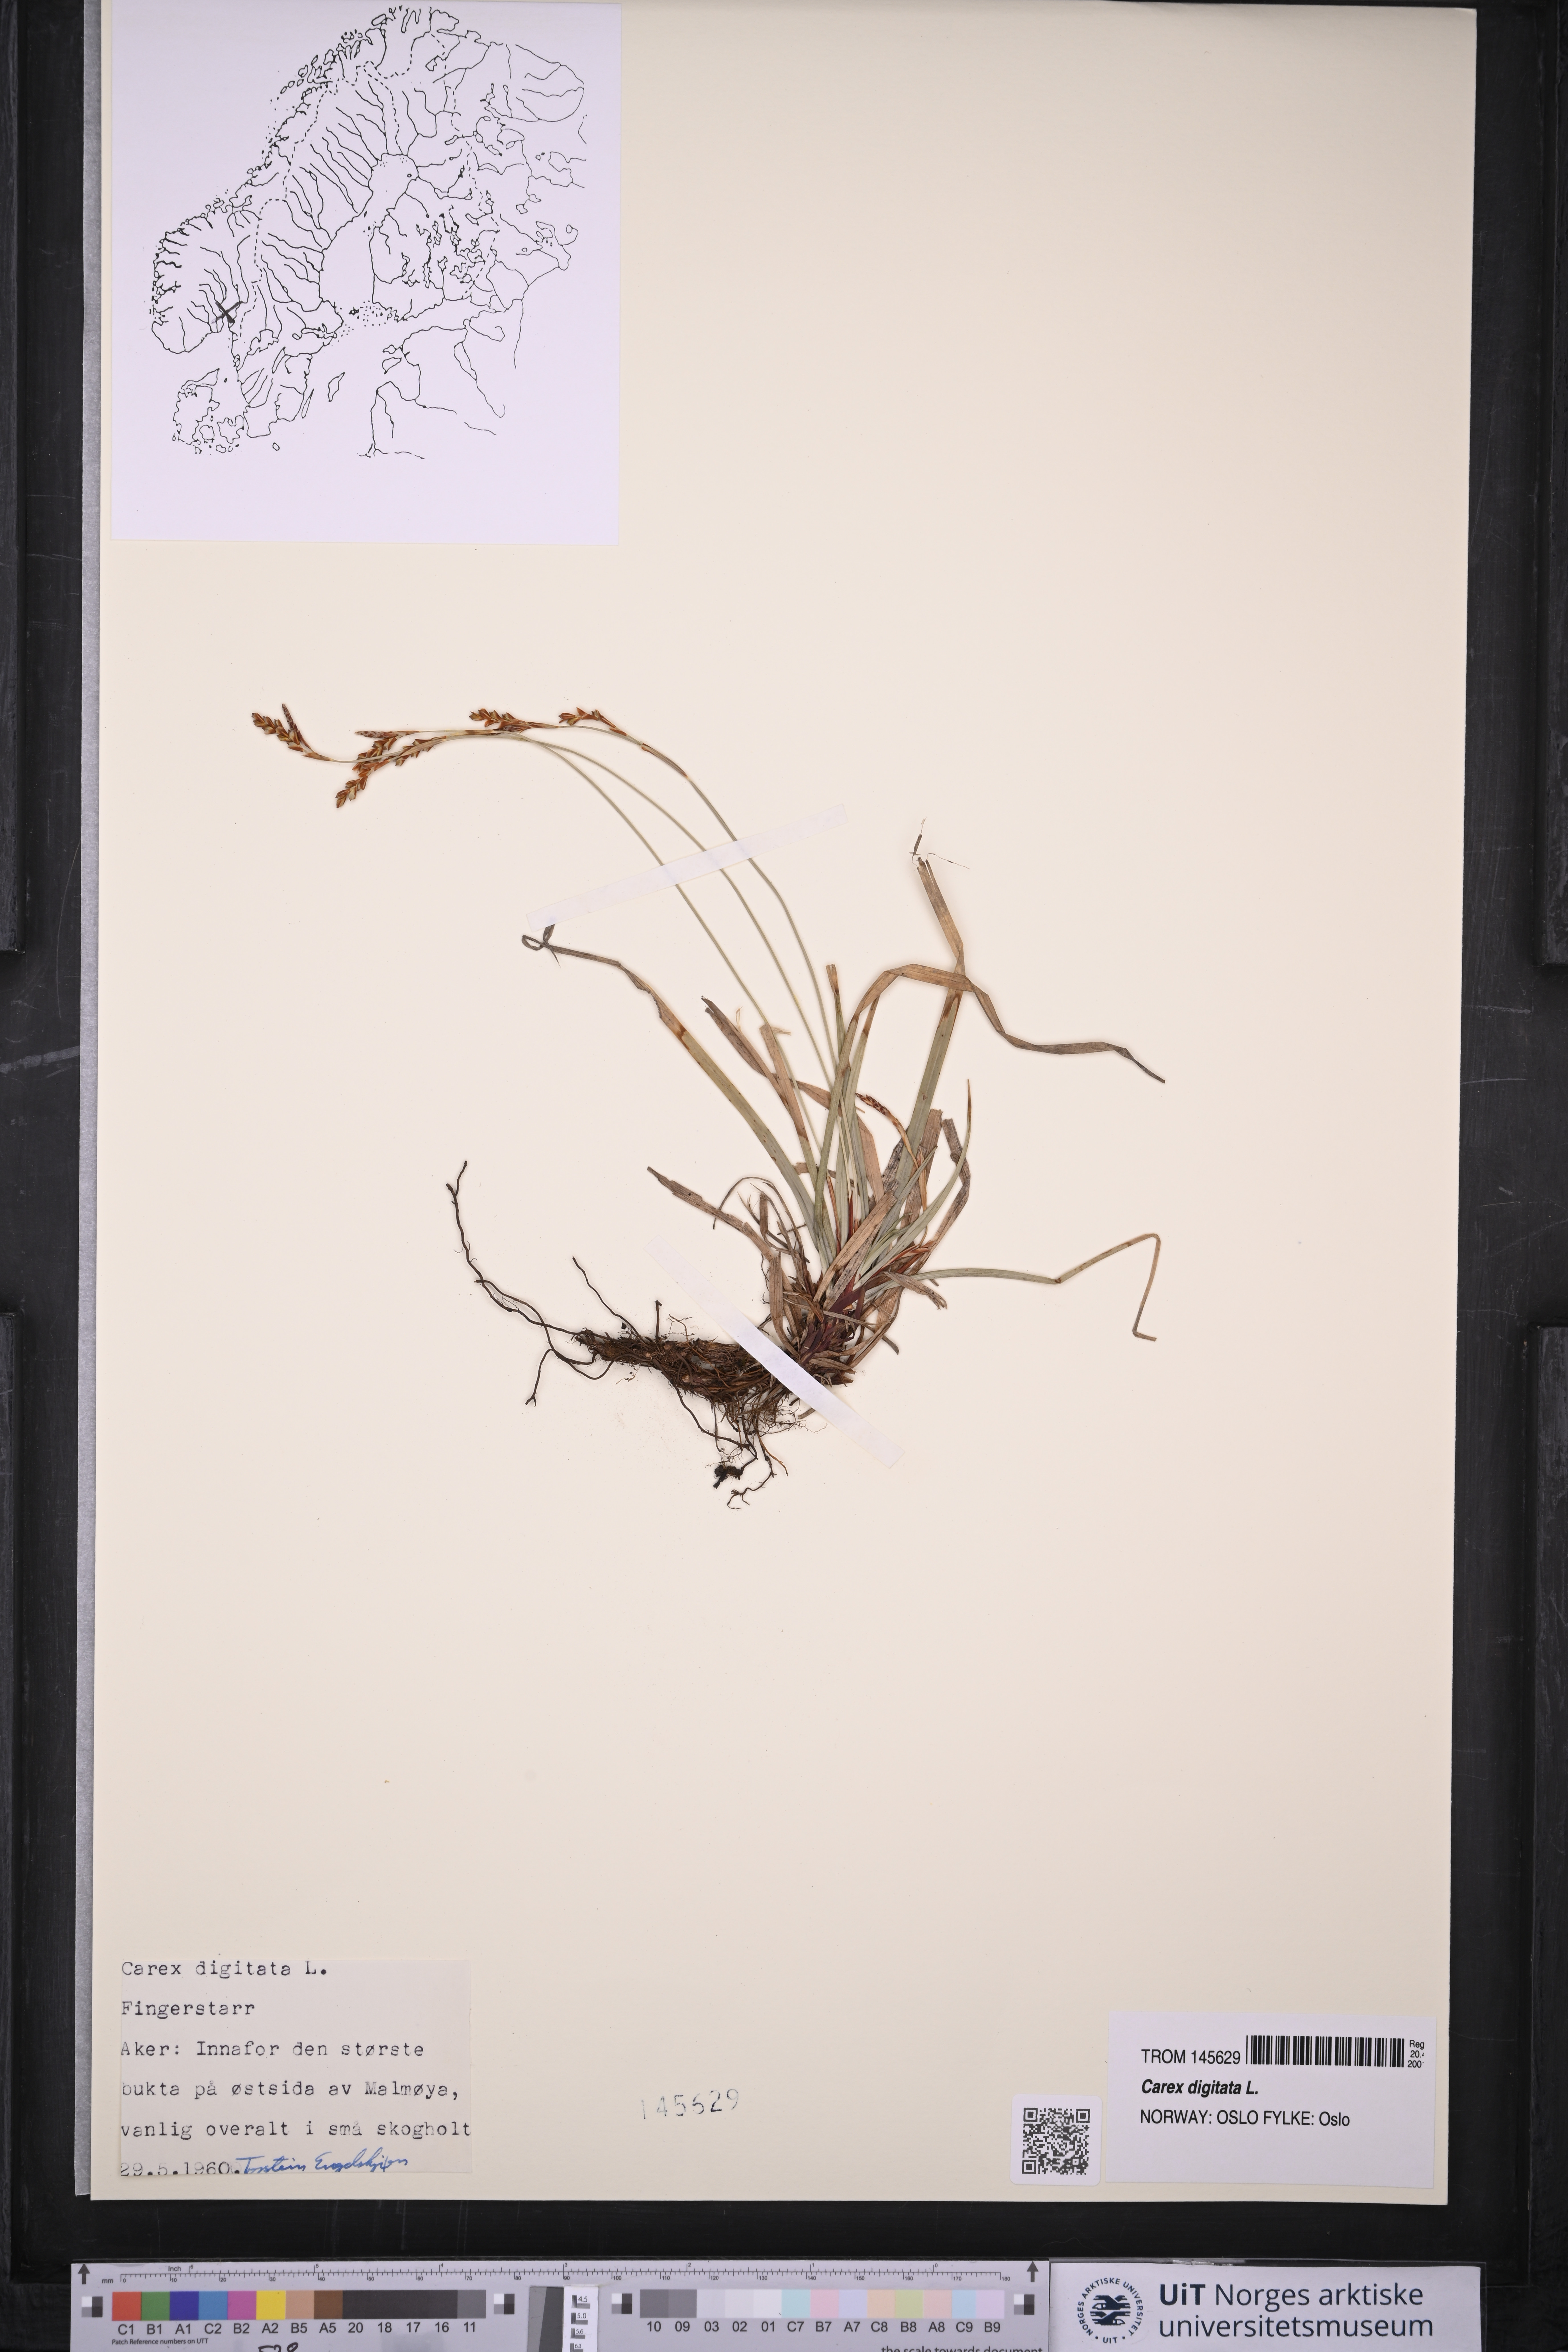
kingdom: Plantae
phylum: Tracheophyta
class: Liliopsida
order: Poales
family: Cyperaceae
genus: Carex
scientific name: Carex digitata
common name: Fingered sedge
